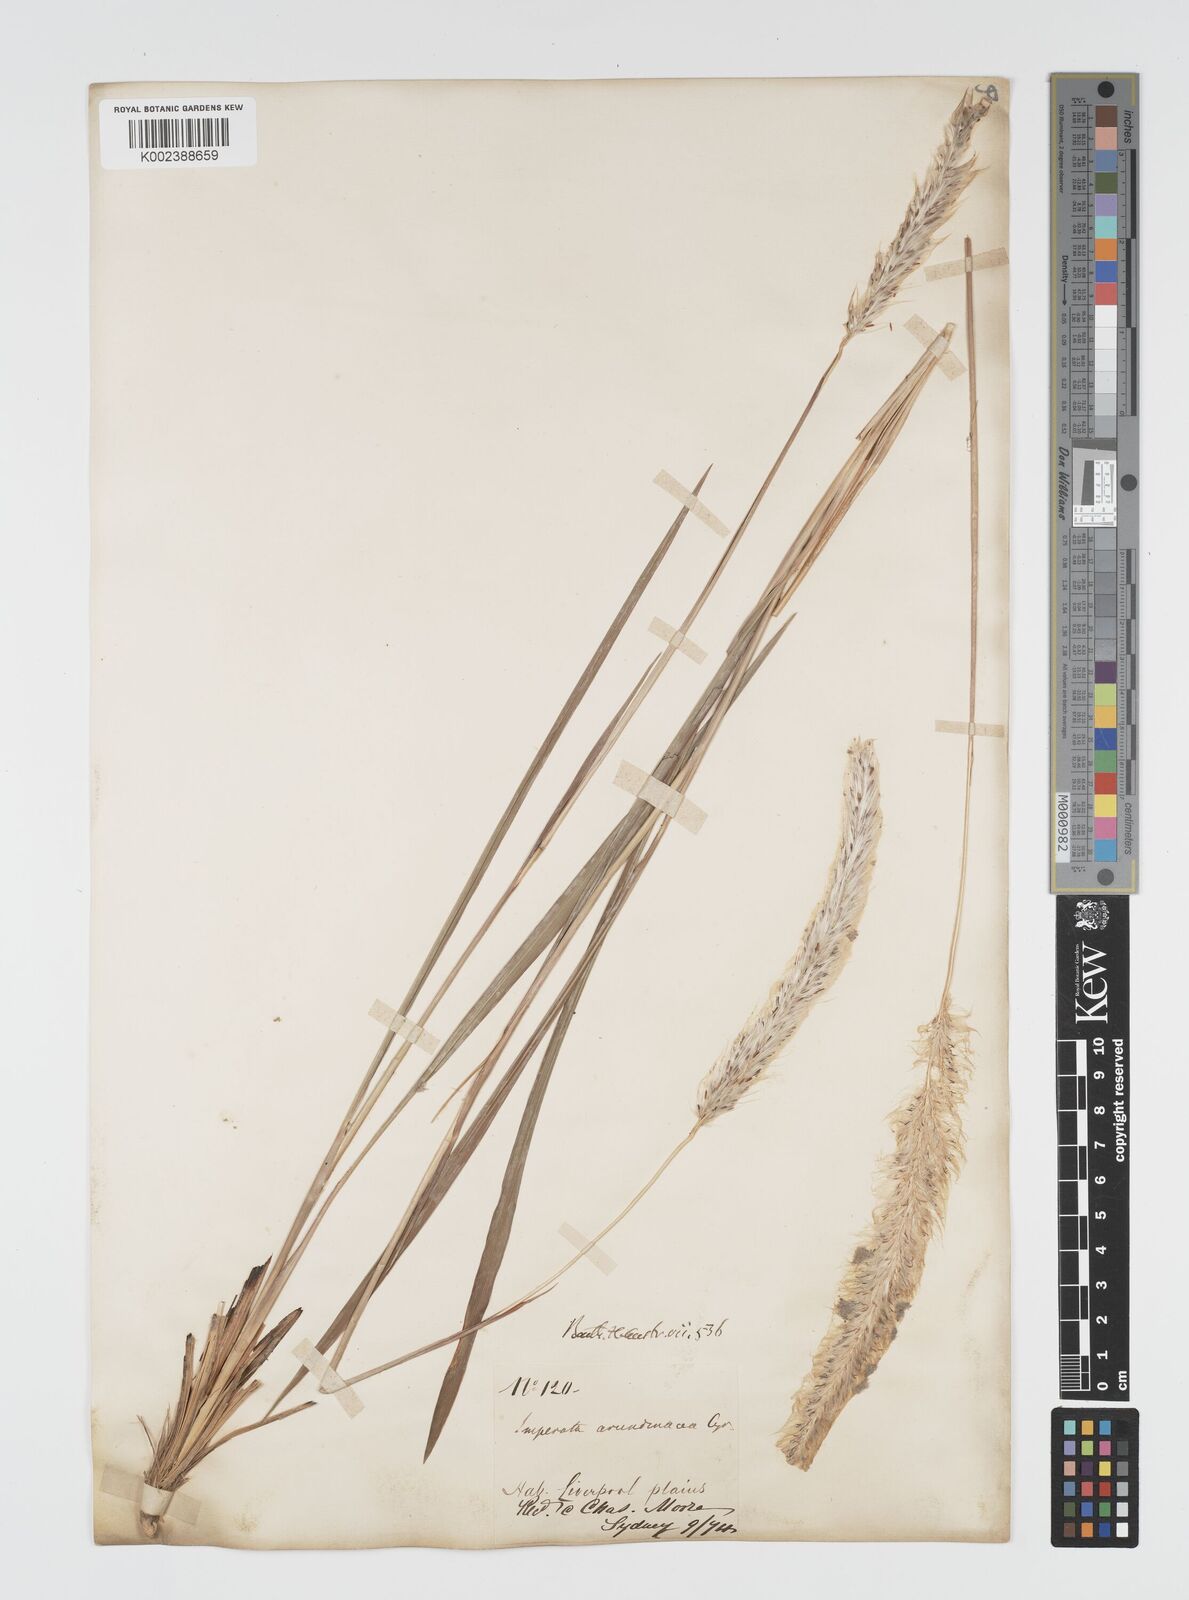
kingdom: Plantae
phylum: Tracheophyta
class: Liliopsida
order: Poales
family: Poaceae
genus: Imperata
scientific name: Imperata cylindrica
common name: Cogongrass
